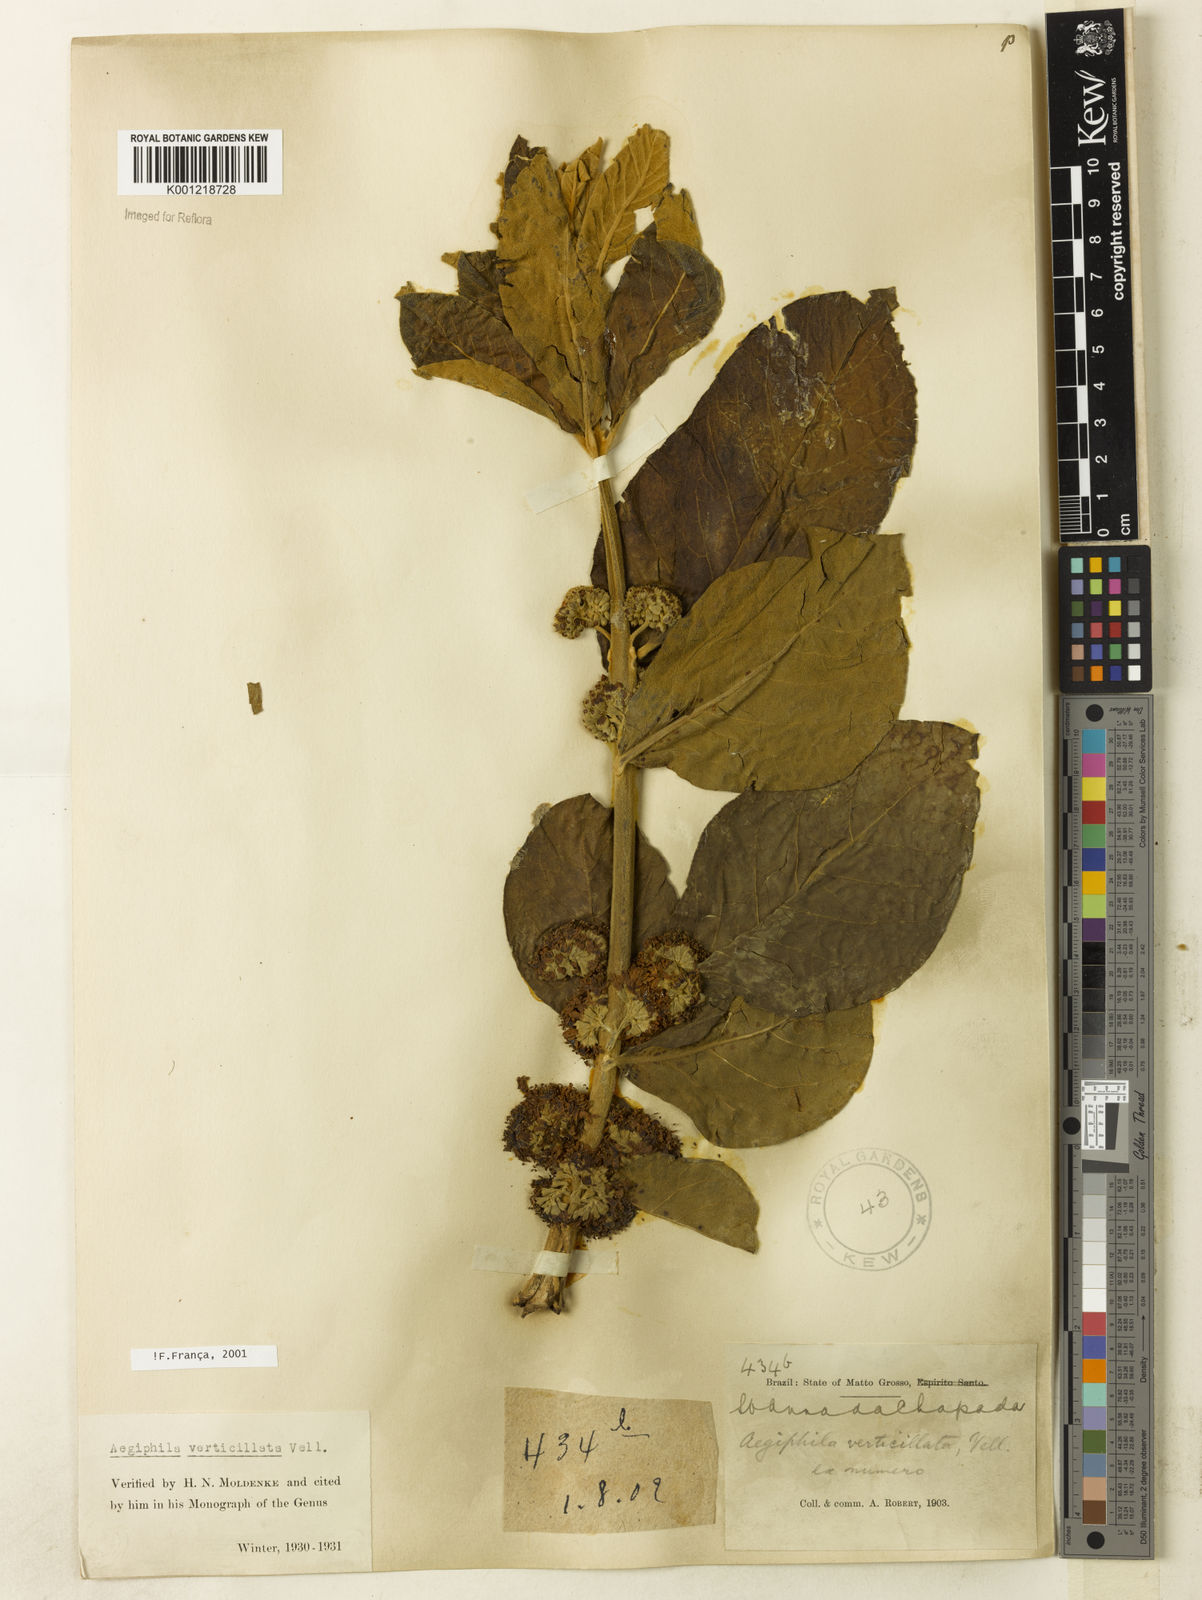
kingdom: Plantae
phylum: Tracheophyta
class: Magnoliopsida
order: Lamiales
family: Lamiaceae
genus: Aegiphila
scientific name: Aegiphila verticillata
